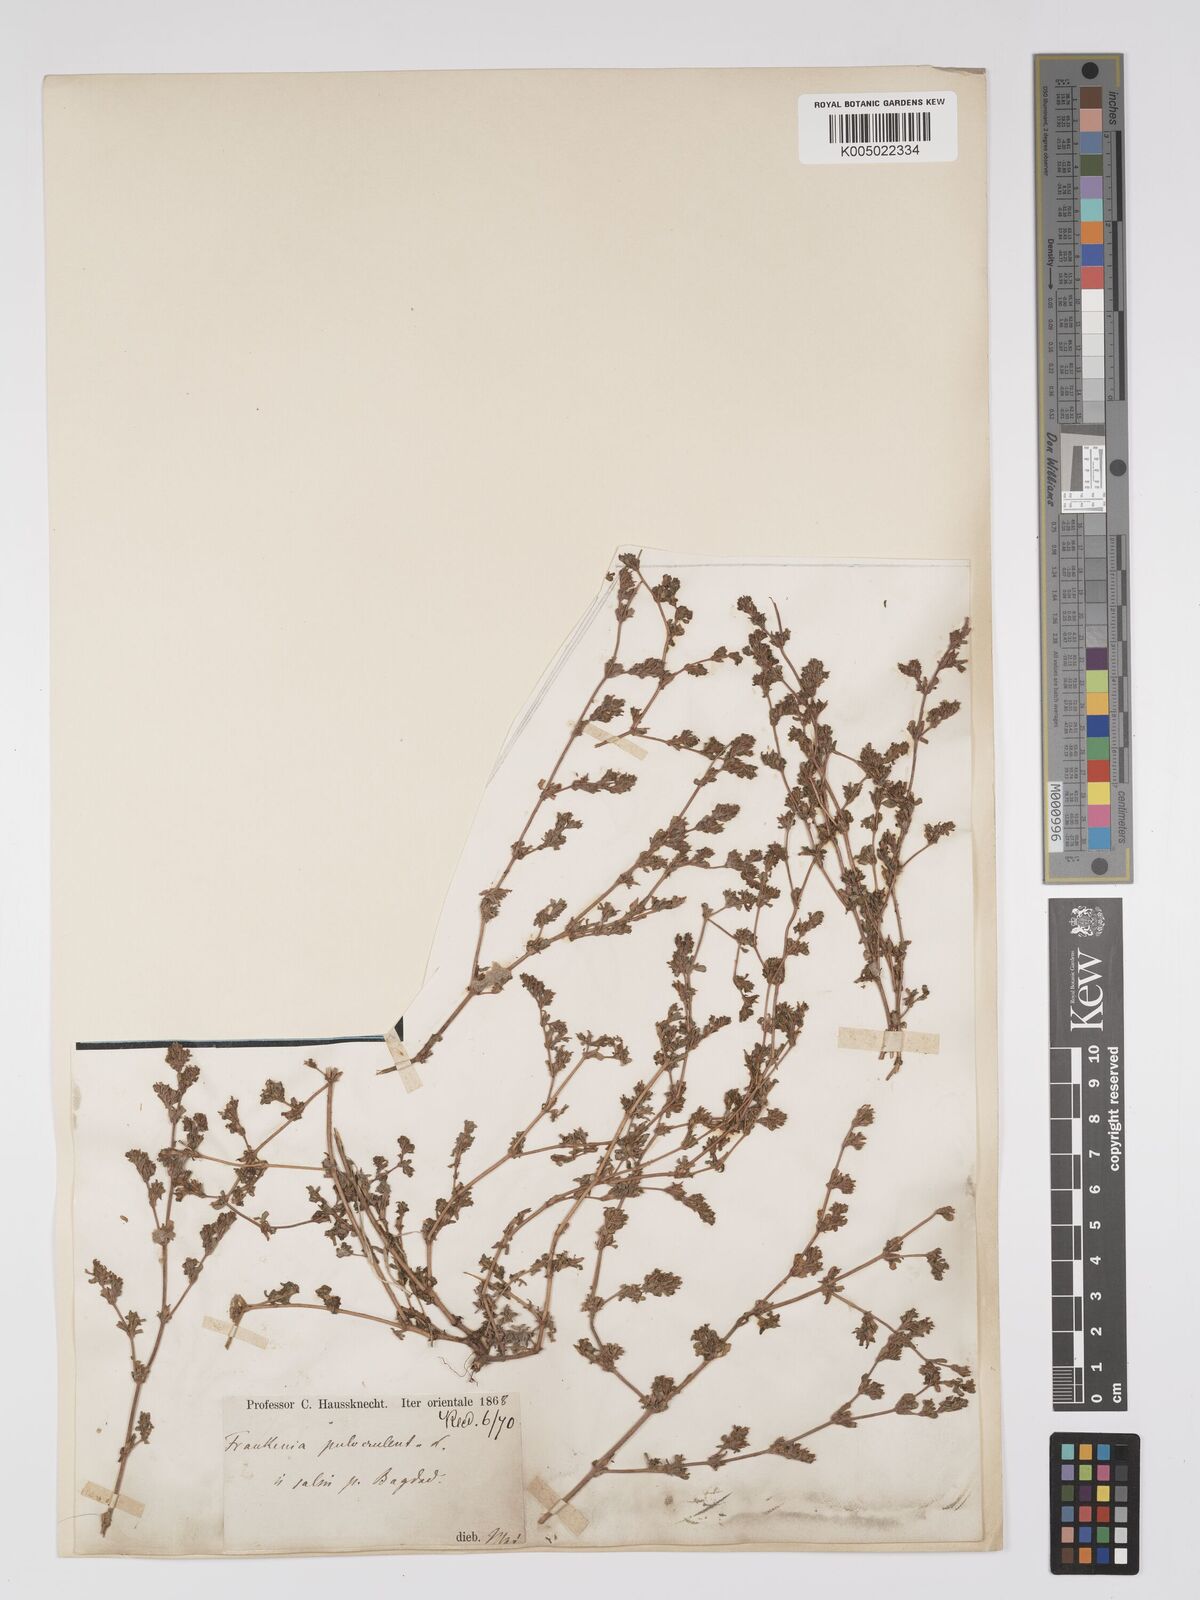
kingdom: Plantae
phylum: Tracheophyta
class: Magnoliopsida
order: Caryophyllales
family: Frankeniaceae
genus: Frankenia
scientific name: Frankenia pulverulenta
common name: European seaheath
